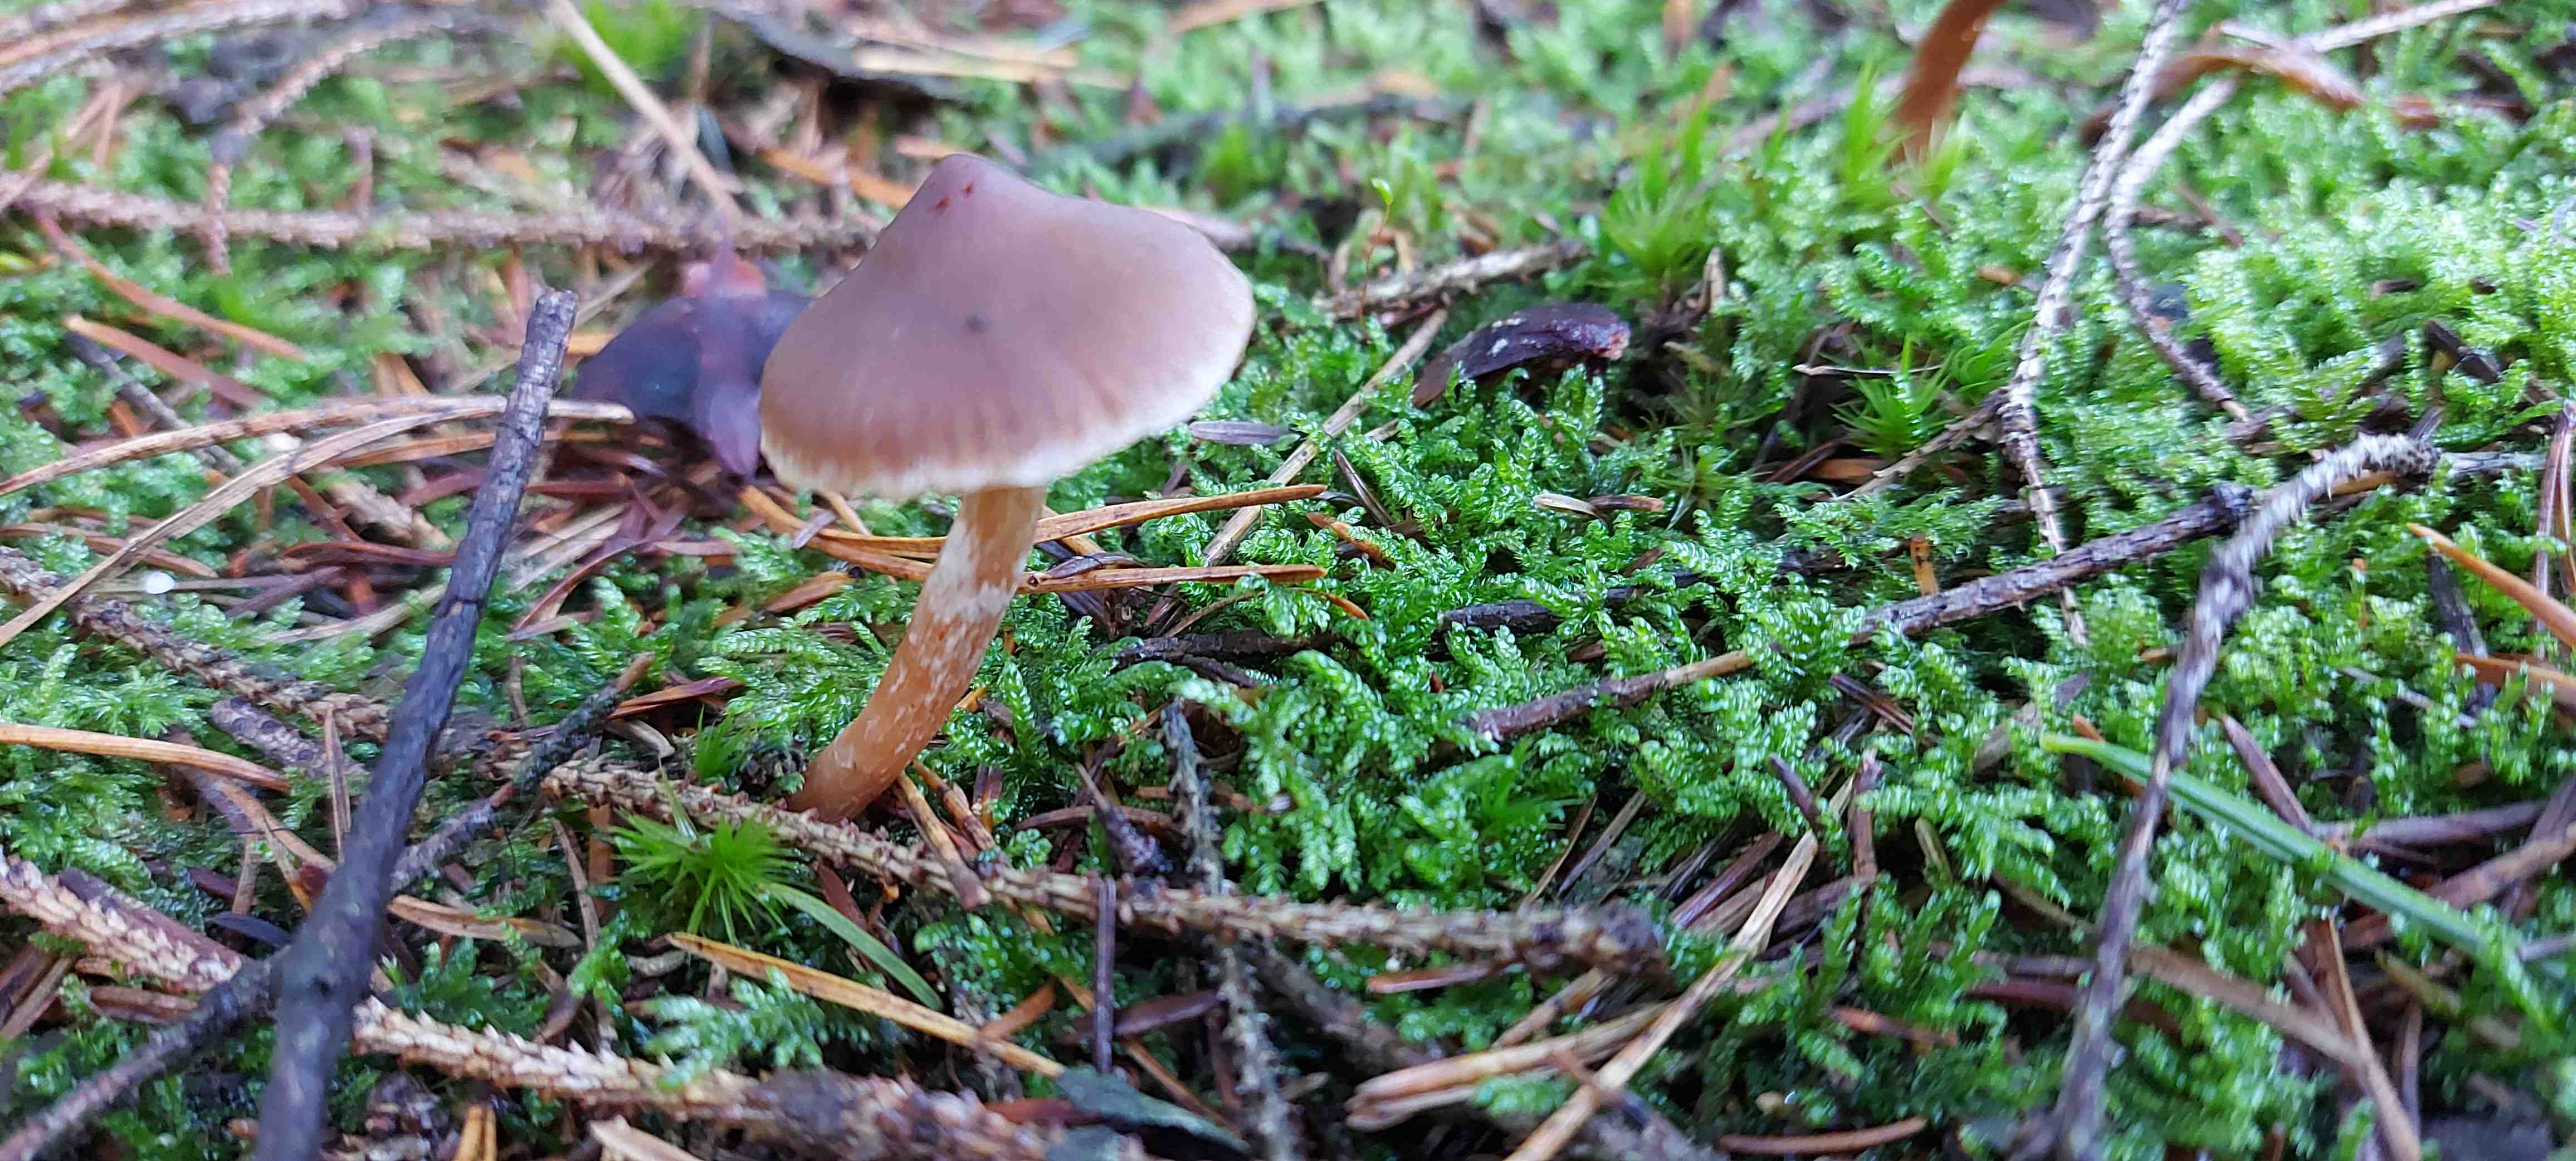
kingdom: Fungi
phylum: Basidiomycota
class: Agaricomycetes
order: Agaricales
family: Cortinariaceae
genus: Cortinarius
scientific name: Cortinarius
